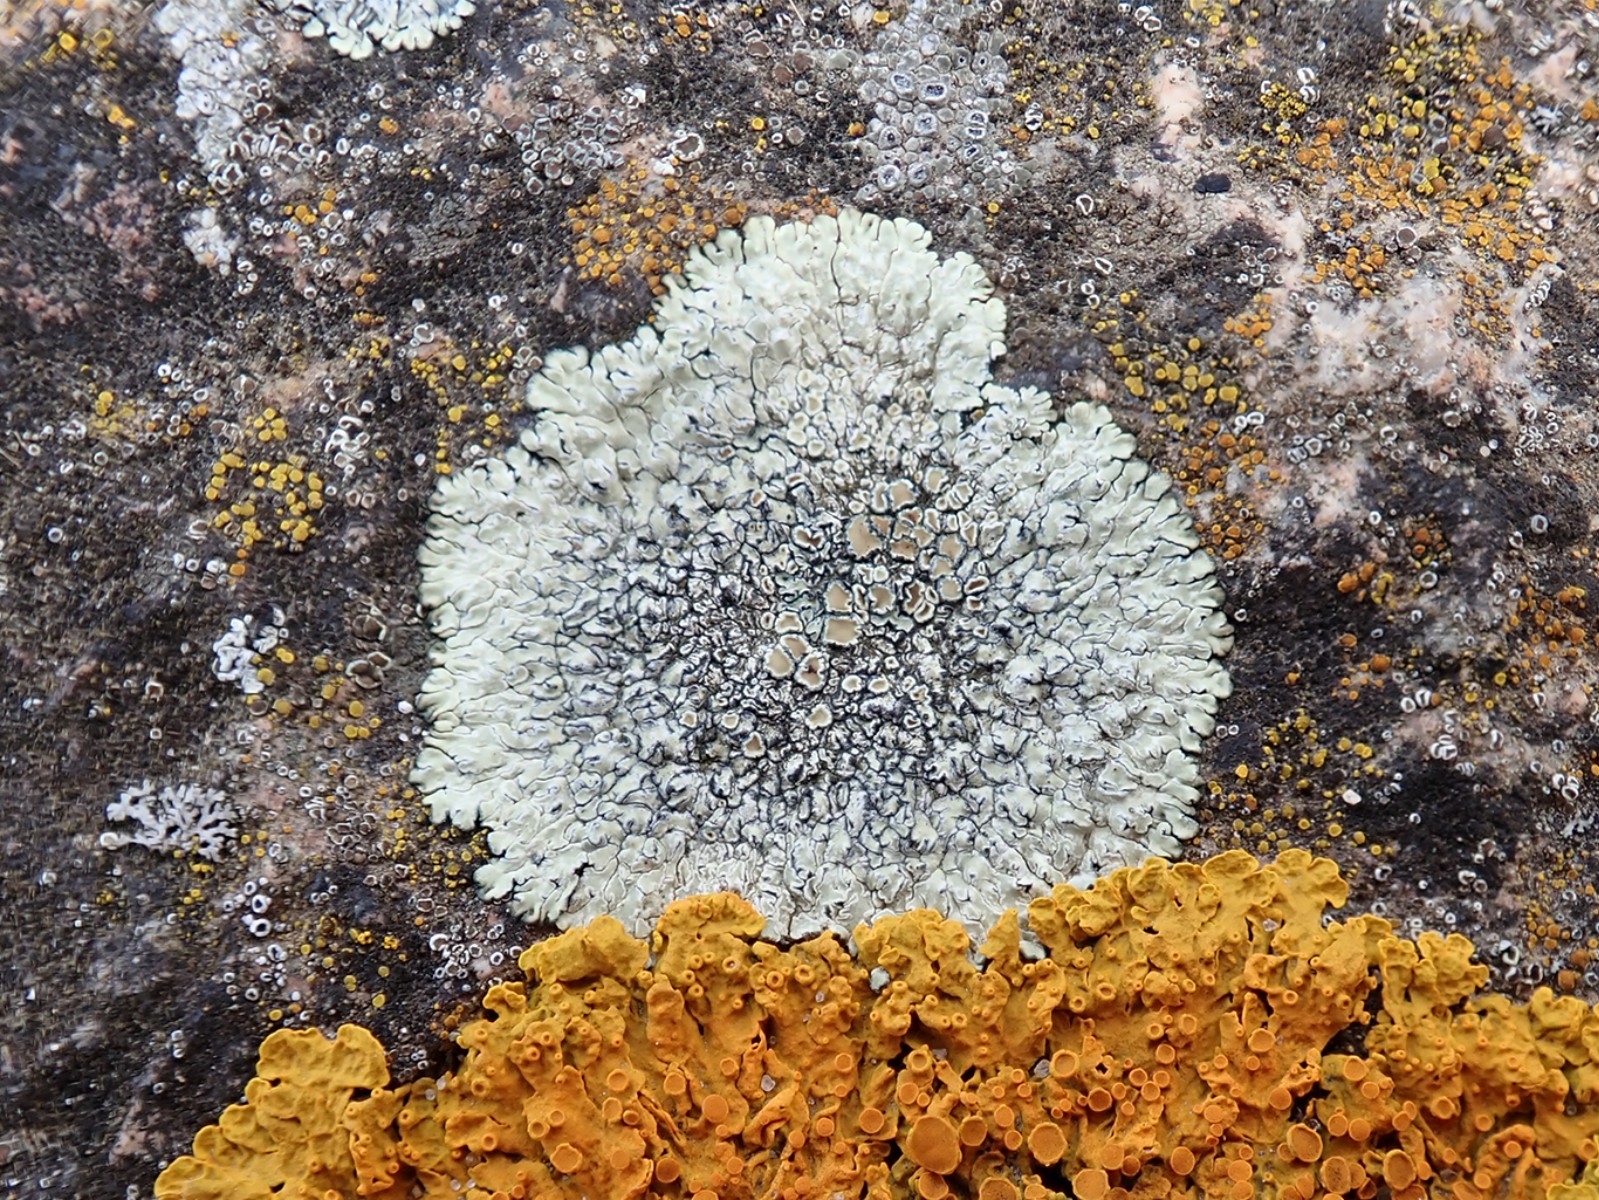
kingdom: Fungi
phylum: Ascomycota
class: Lecanoromycetes
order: Lecanorales
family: Lecanoraceae
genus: Protoparmeliopsis
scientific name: Protoparmeliopsis muralis
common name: randfliget kantskivelav
